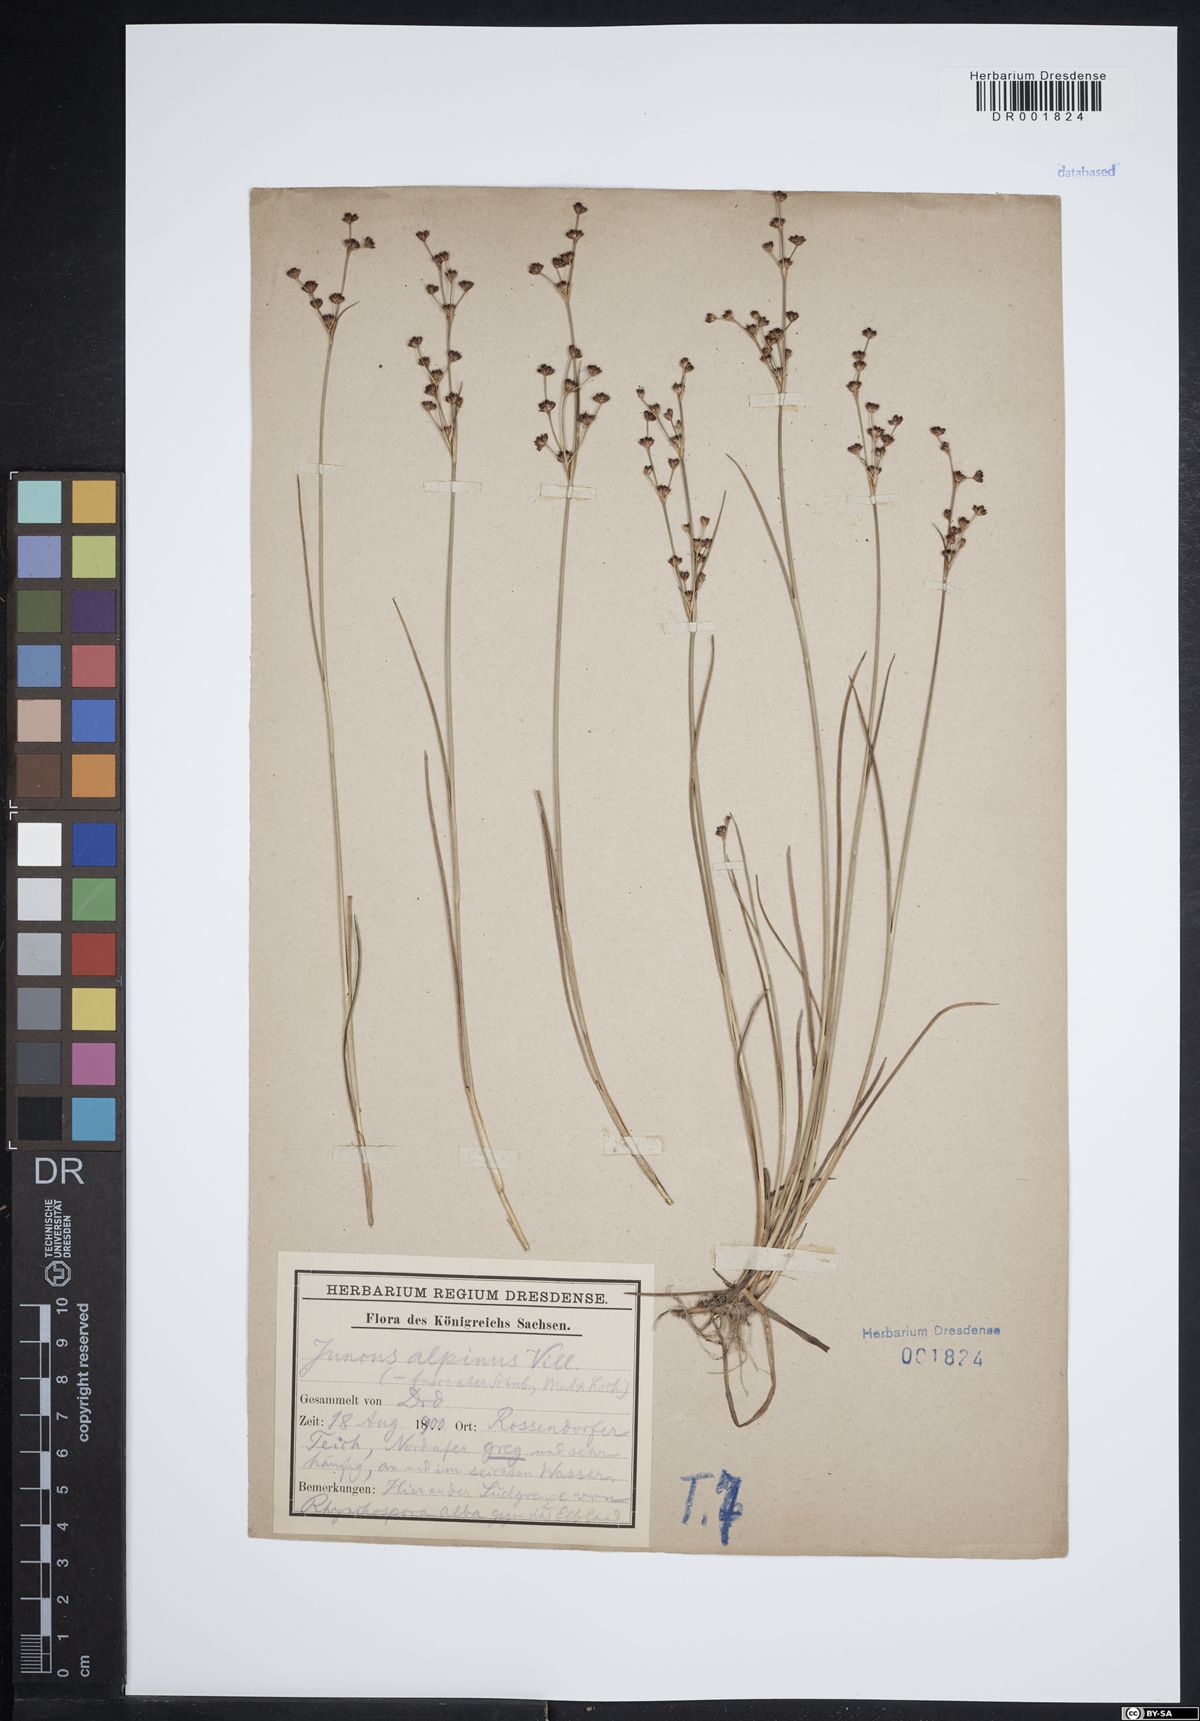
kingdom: Plantae
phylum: Tracheophyta
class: Liliopsida
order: Poales
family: Juncaceae
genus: Juncus
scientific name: Juncus alpinoarticulatus
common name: Alpine rush
